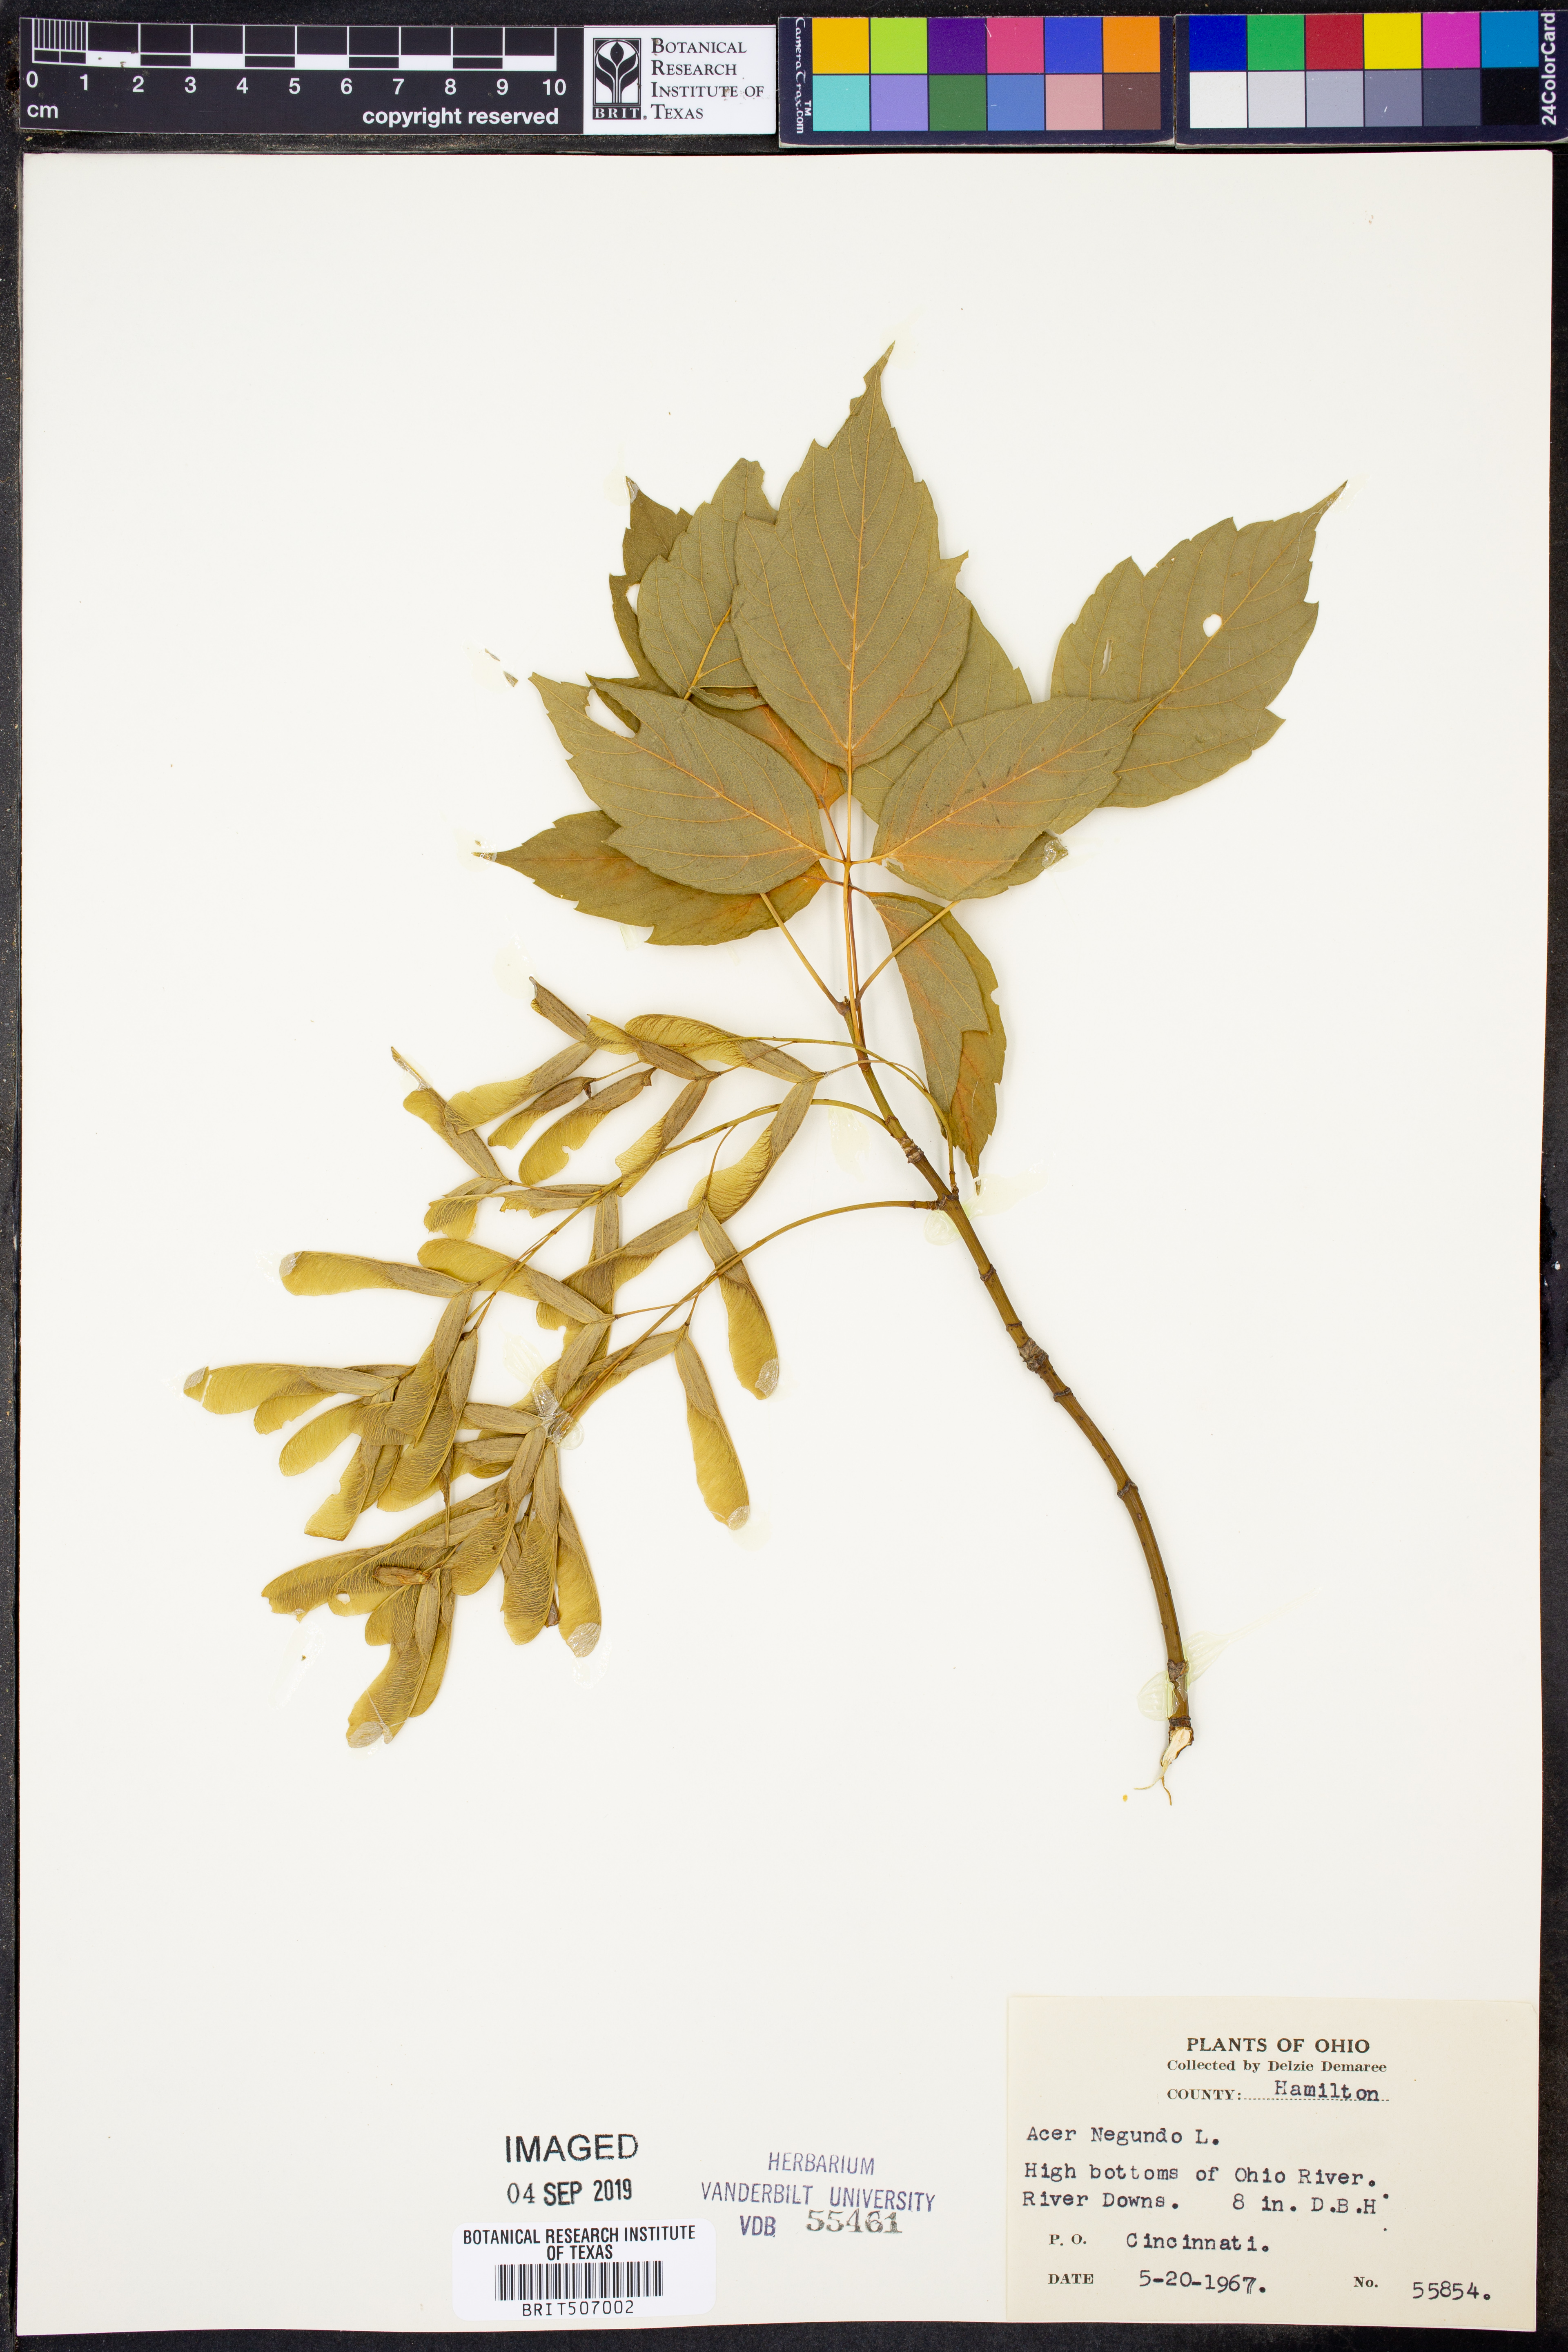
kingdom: Plantae
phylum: Tracheophyta
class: Magnoliopsida
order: Sapindales
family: Sapindaceae
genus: Acer
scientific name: Acer negundo
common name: Ashleaf maple
